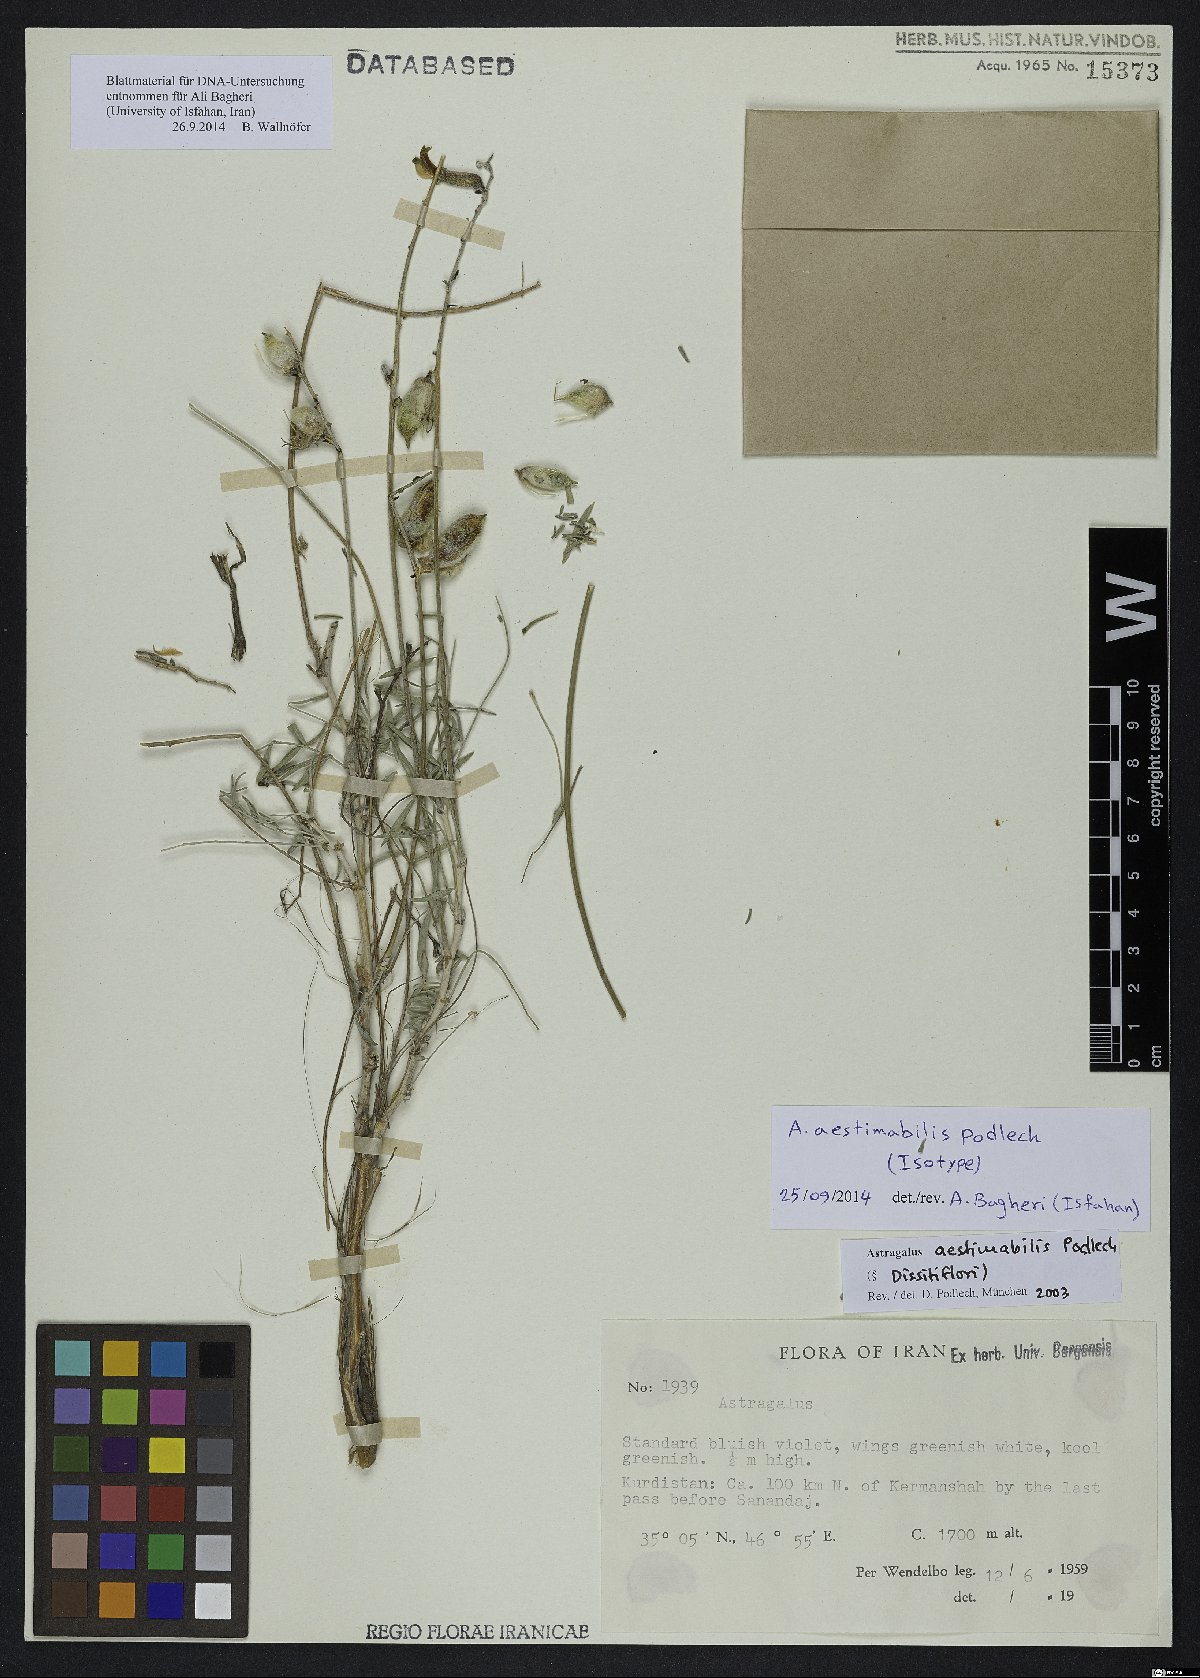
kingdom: Plantae
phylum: Tracheophyta
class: Magnoliopsida
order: Fabales
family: Fabaceae
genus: Astragalus
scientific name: Astragalus aestimabilis
